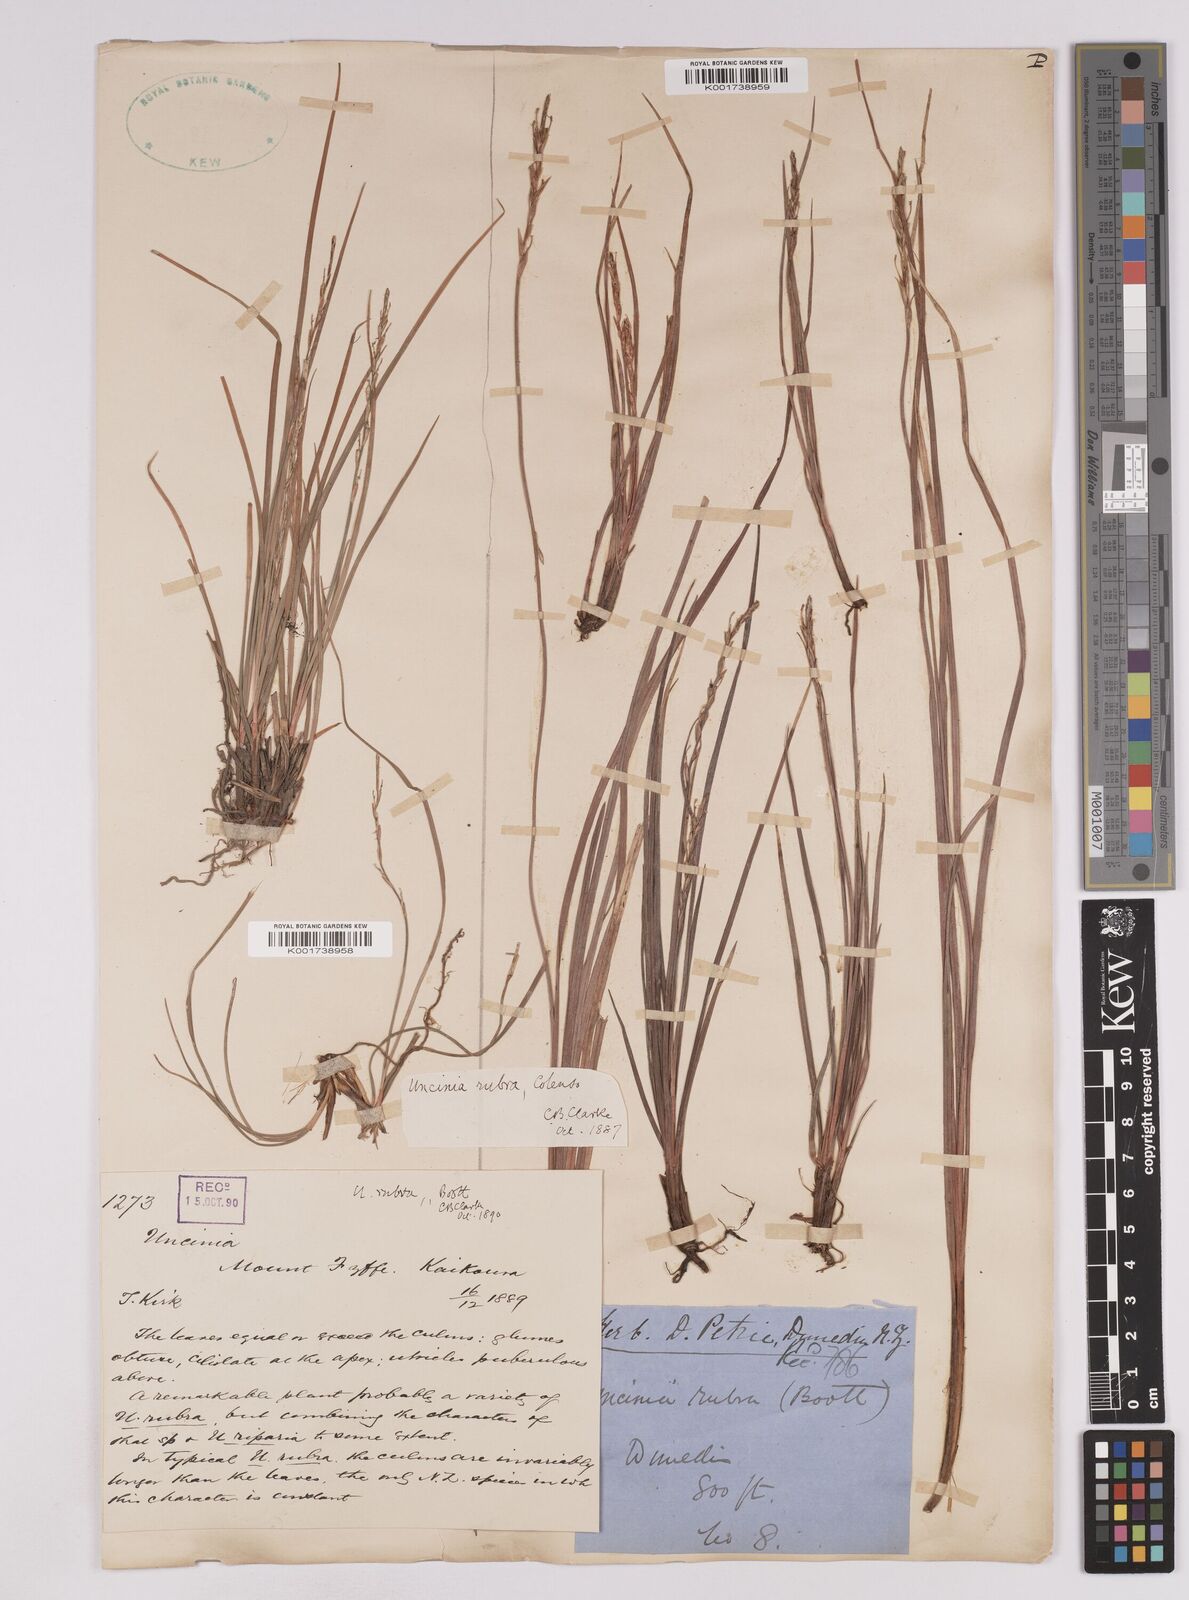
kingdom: Plantae
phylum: Tracheophyta
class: Liliopsida
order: Poales
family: Cyperaceae
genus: Carex
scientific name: Carex punicea
